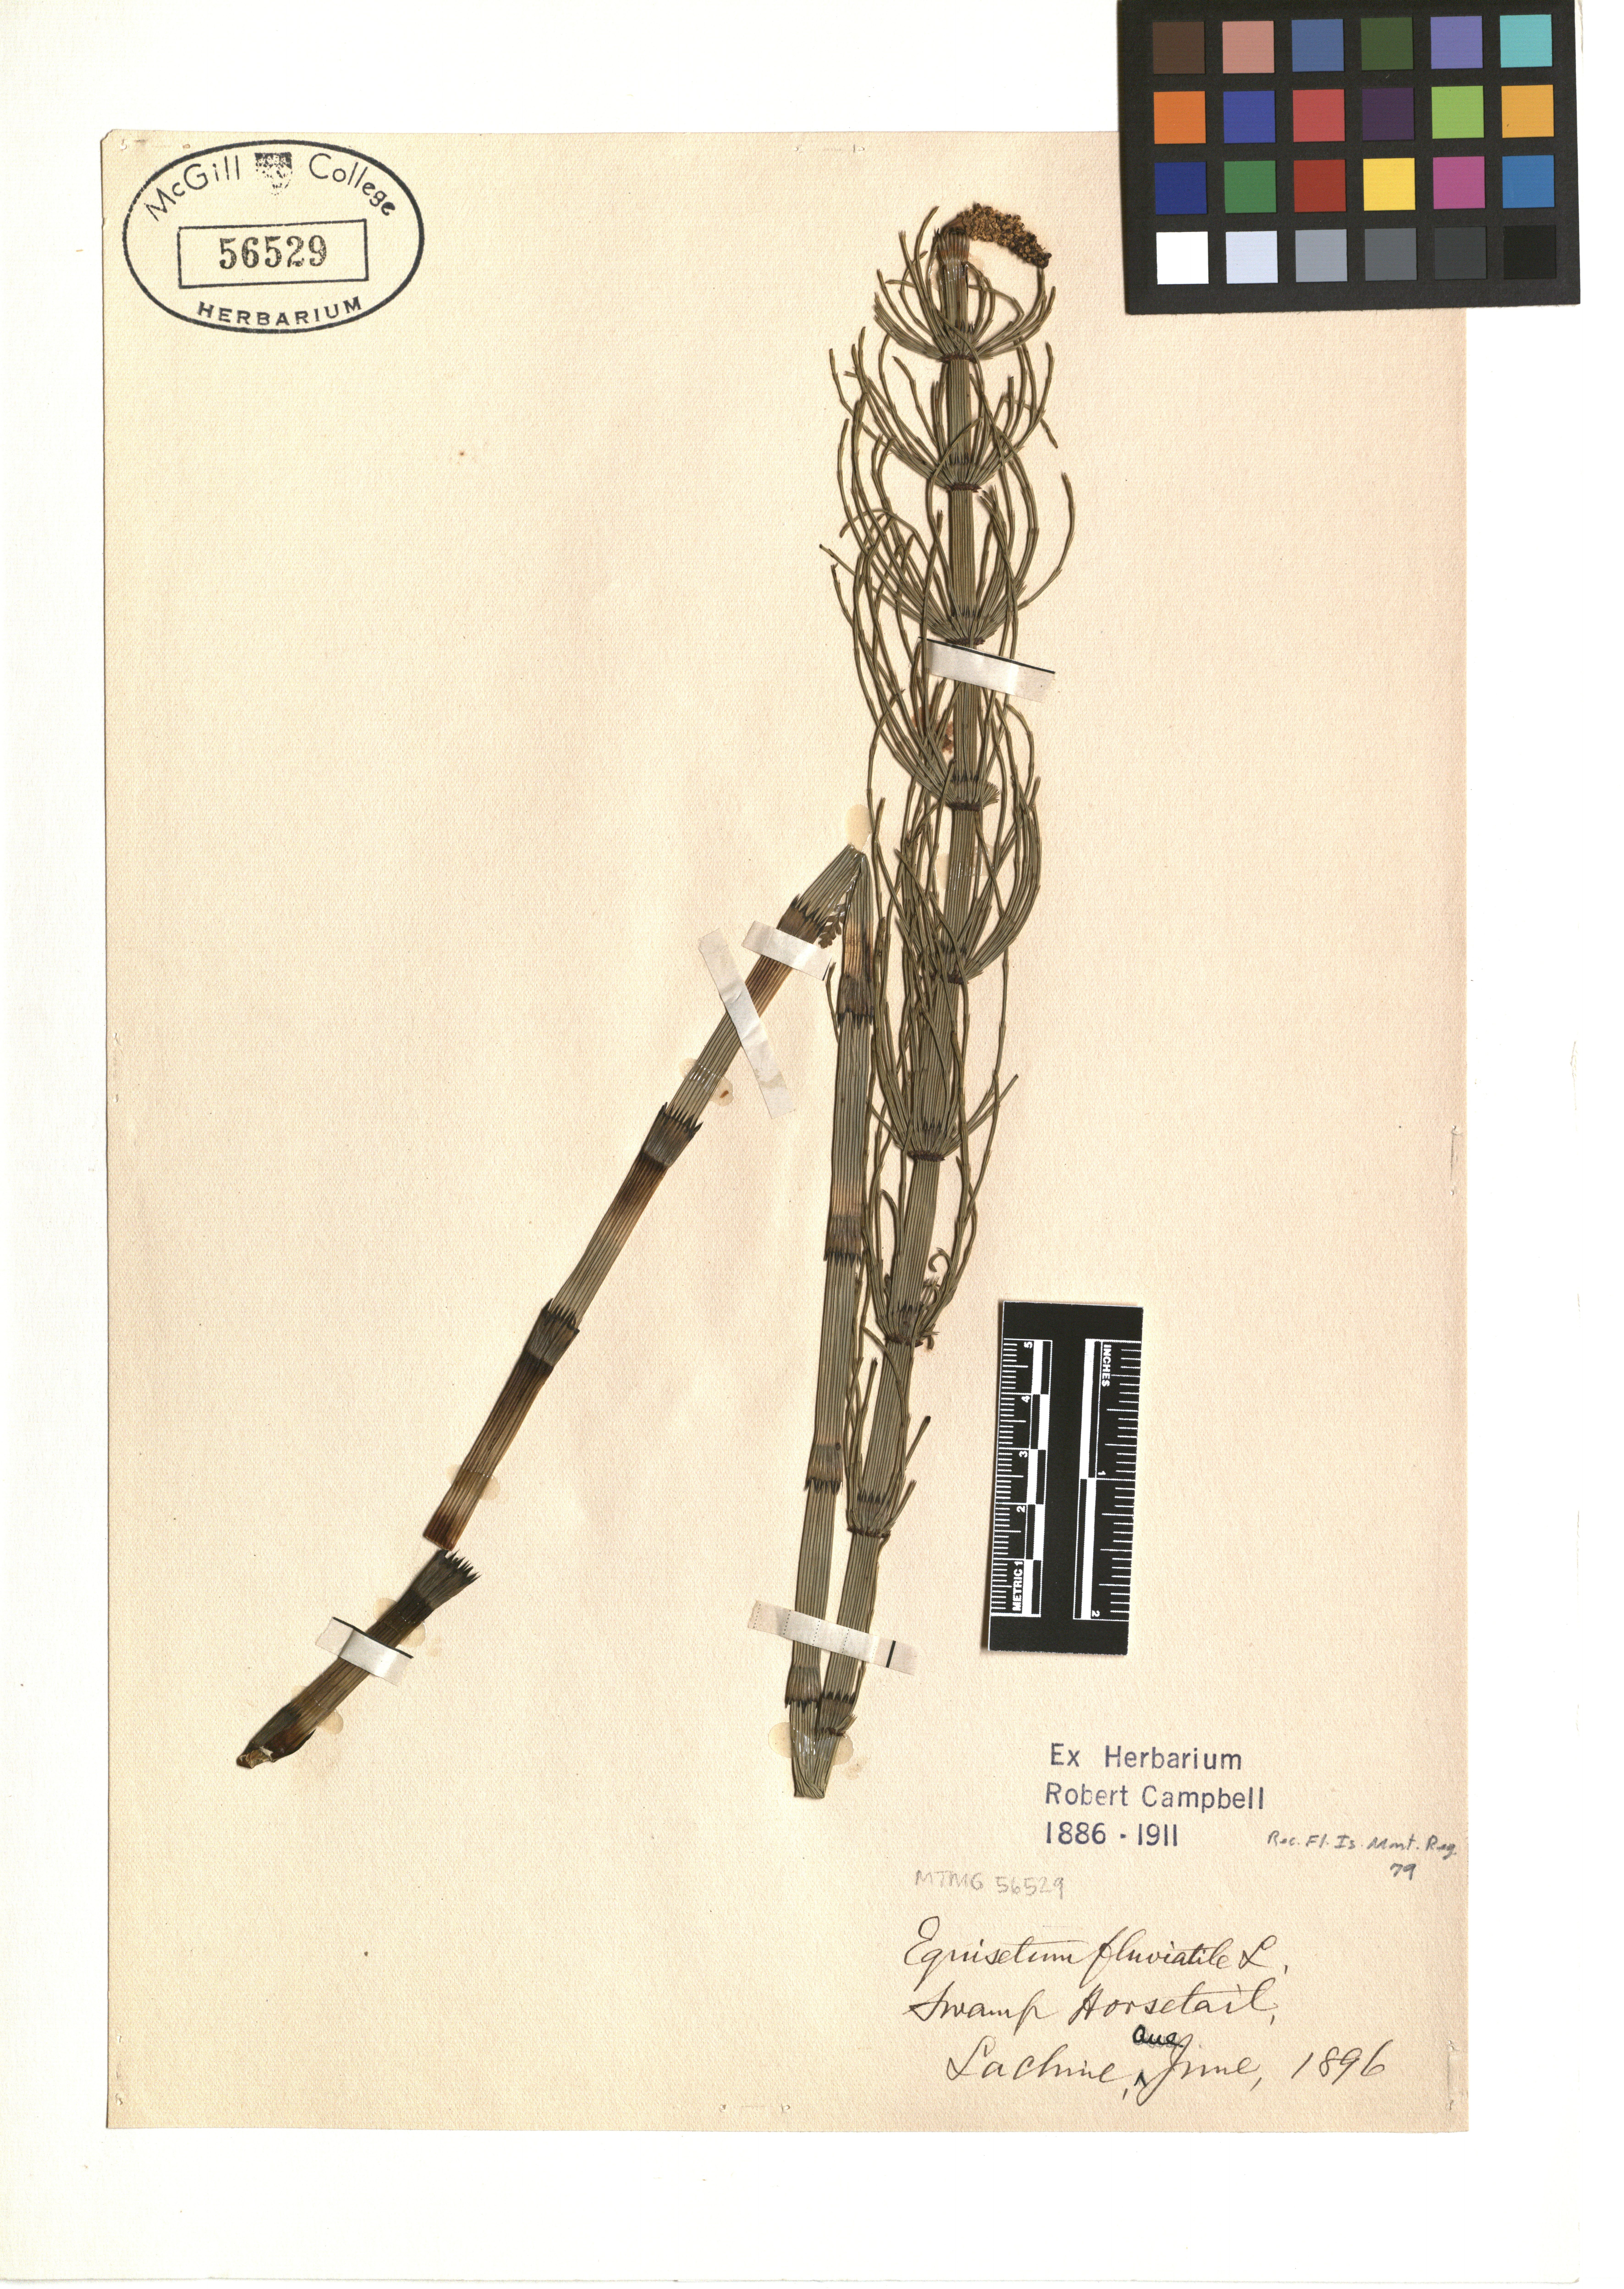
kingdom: Plantae
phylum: Tracheophyta
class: Polypodiopsida
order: Equisetales
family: Equisetaceae
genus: Equisetum
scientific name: Equisetum fluviatile
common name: Water horsetail
